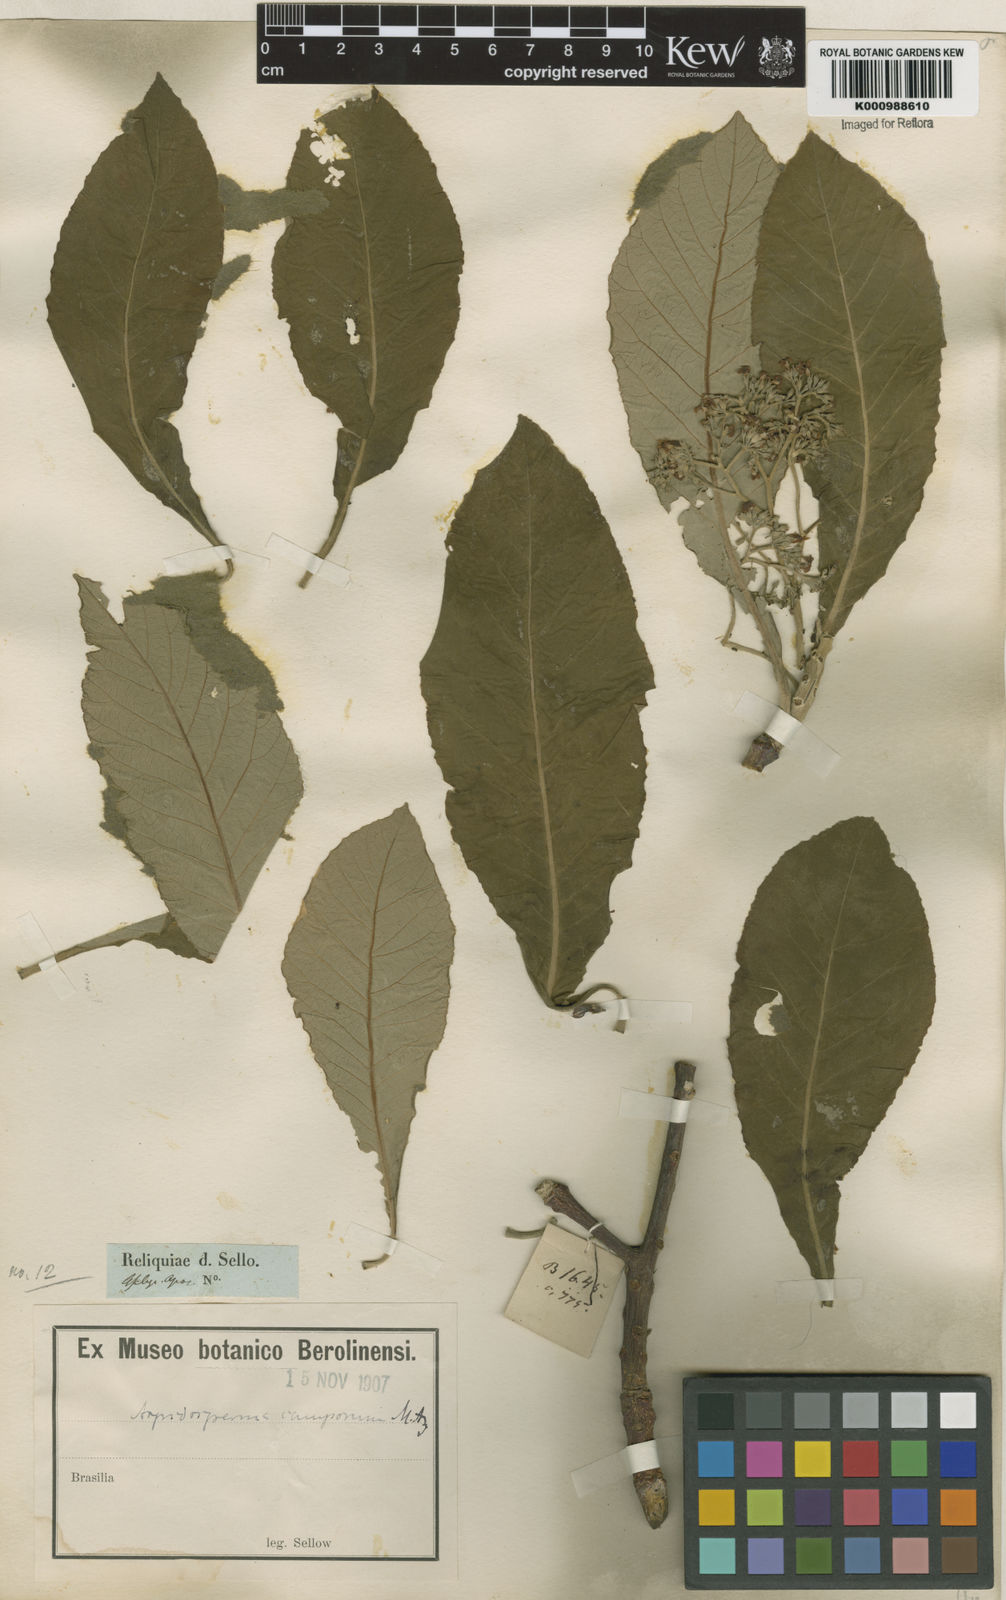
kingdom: Plantae
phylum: Tracheophyta
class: Magnoliopsida
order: Gentianales
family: Apocynaceae
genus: Aspidosperma
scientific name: Aspidosperma tomentosum
